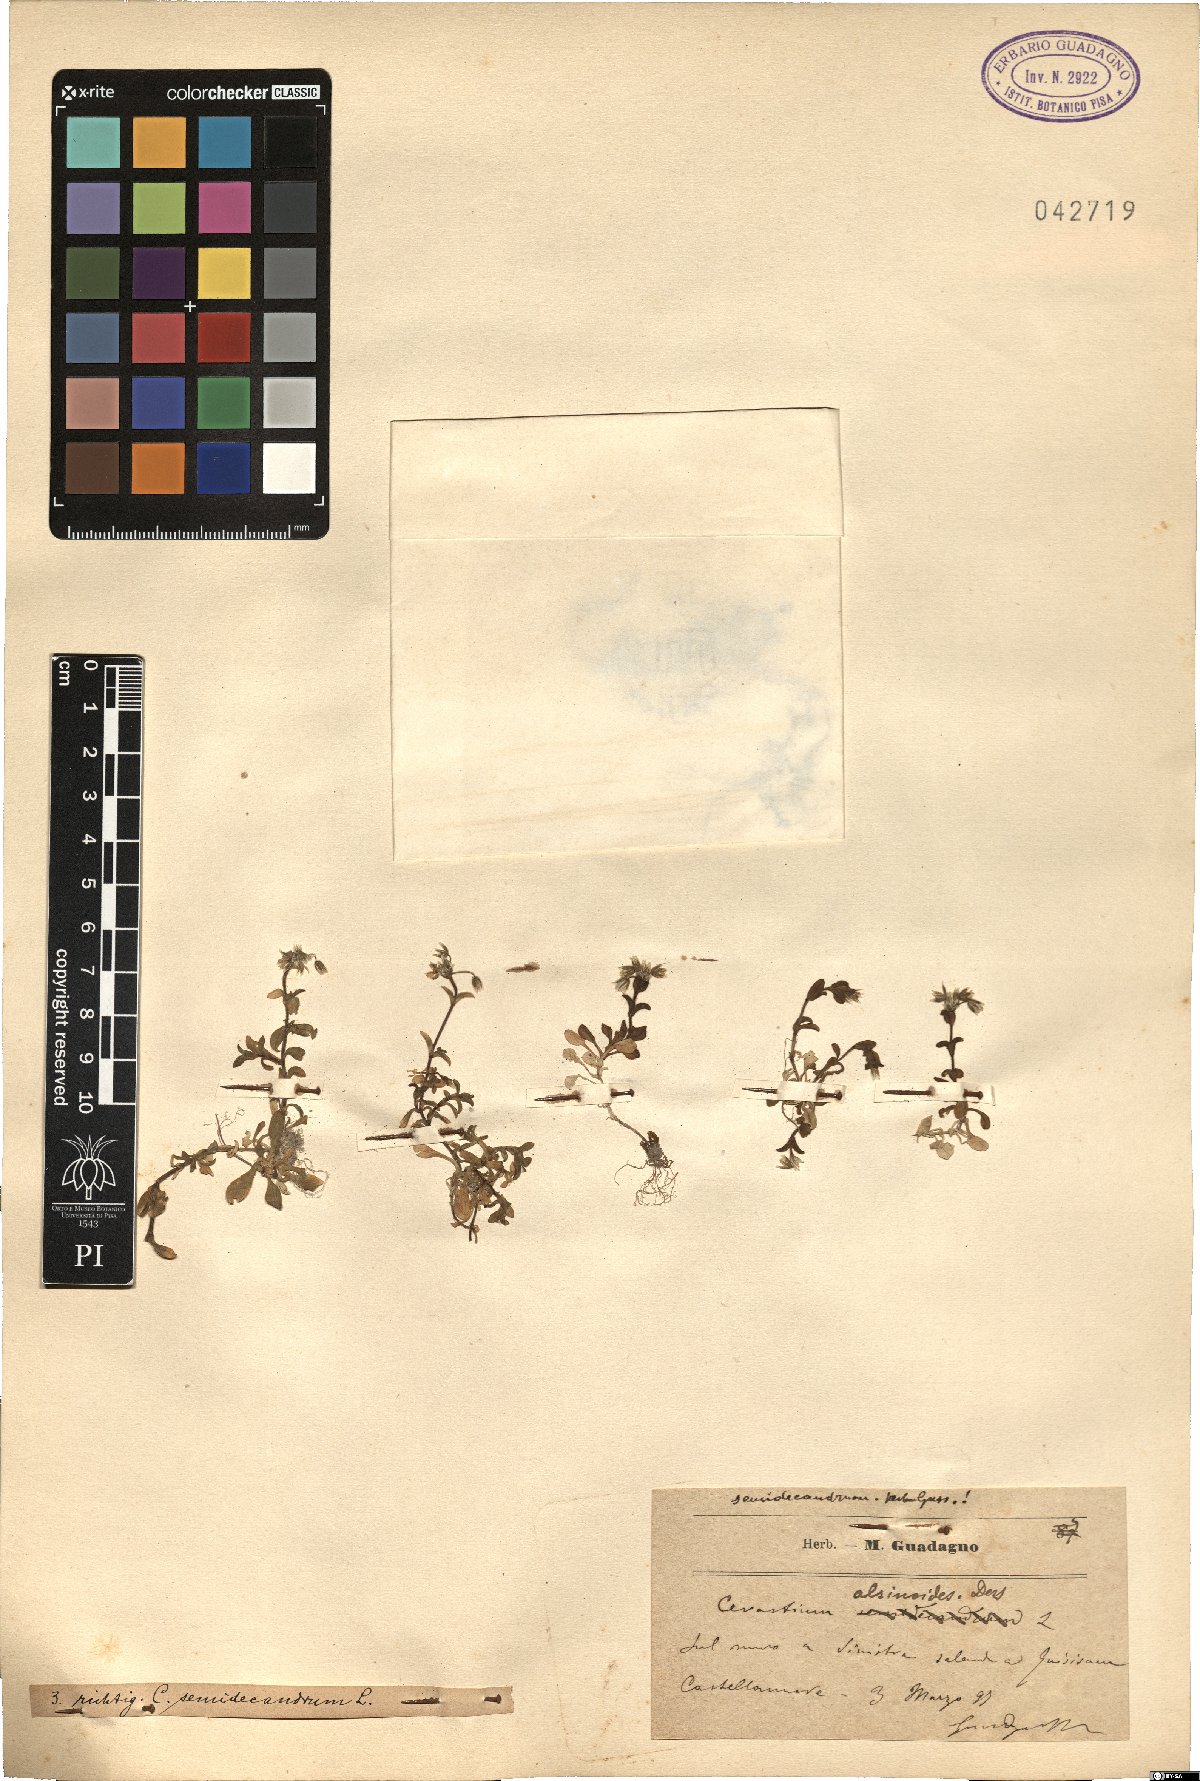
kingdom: Plantae
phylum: Tracheophyta
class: Magnoliopsida
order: Caryophyllales
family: Caryophyllaceae
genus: Cerastium
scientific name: Cerastium semidecandrum
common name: Little mouse-ear
